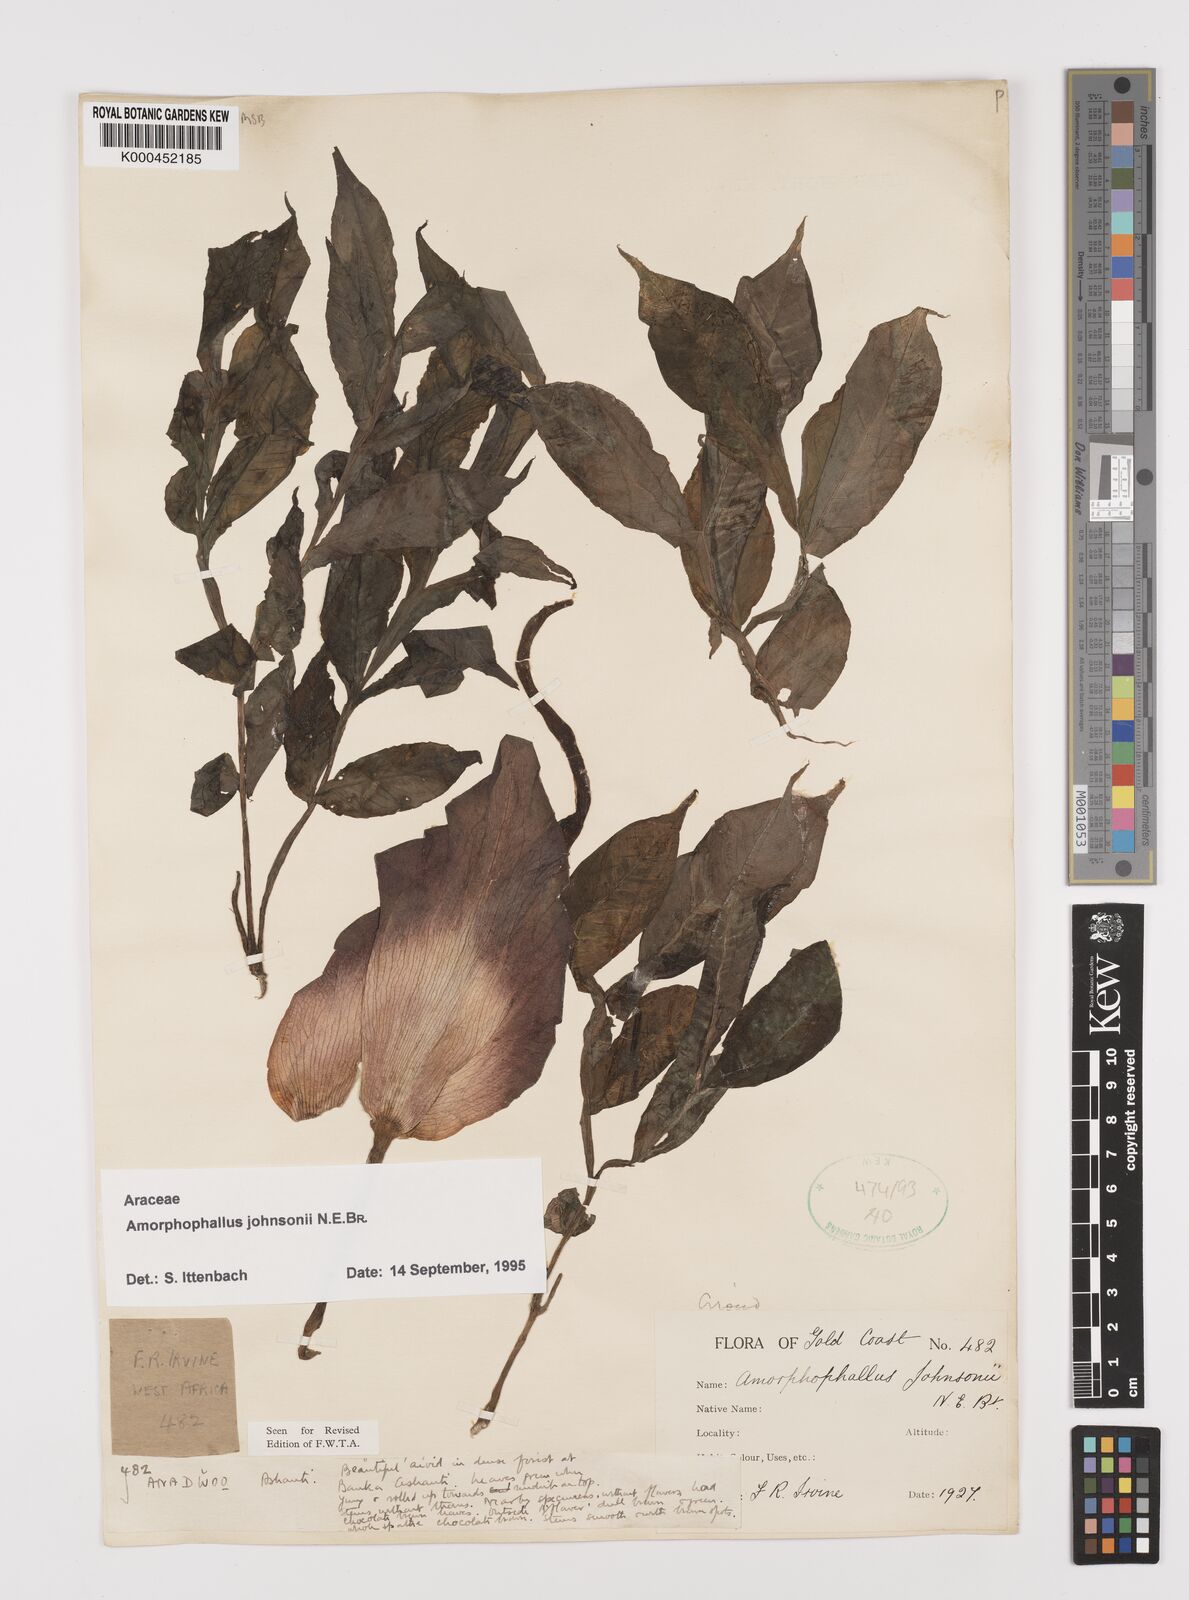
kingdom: Plantae
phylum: Tracheophyta
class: Liliopsida
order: Alismatales
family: Araceae
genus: Amorphophallus
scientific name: Amorphophallus johnsonii
